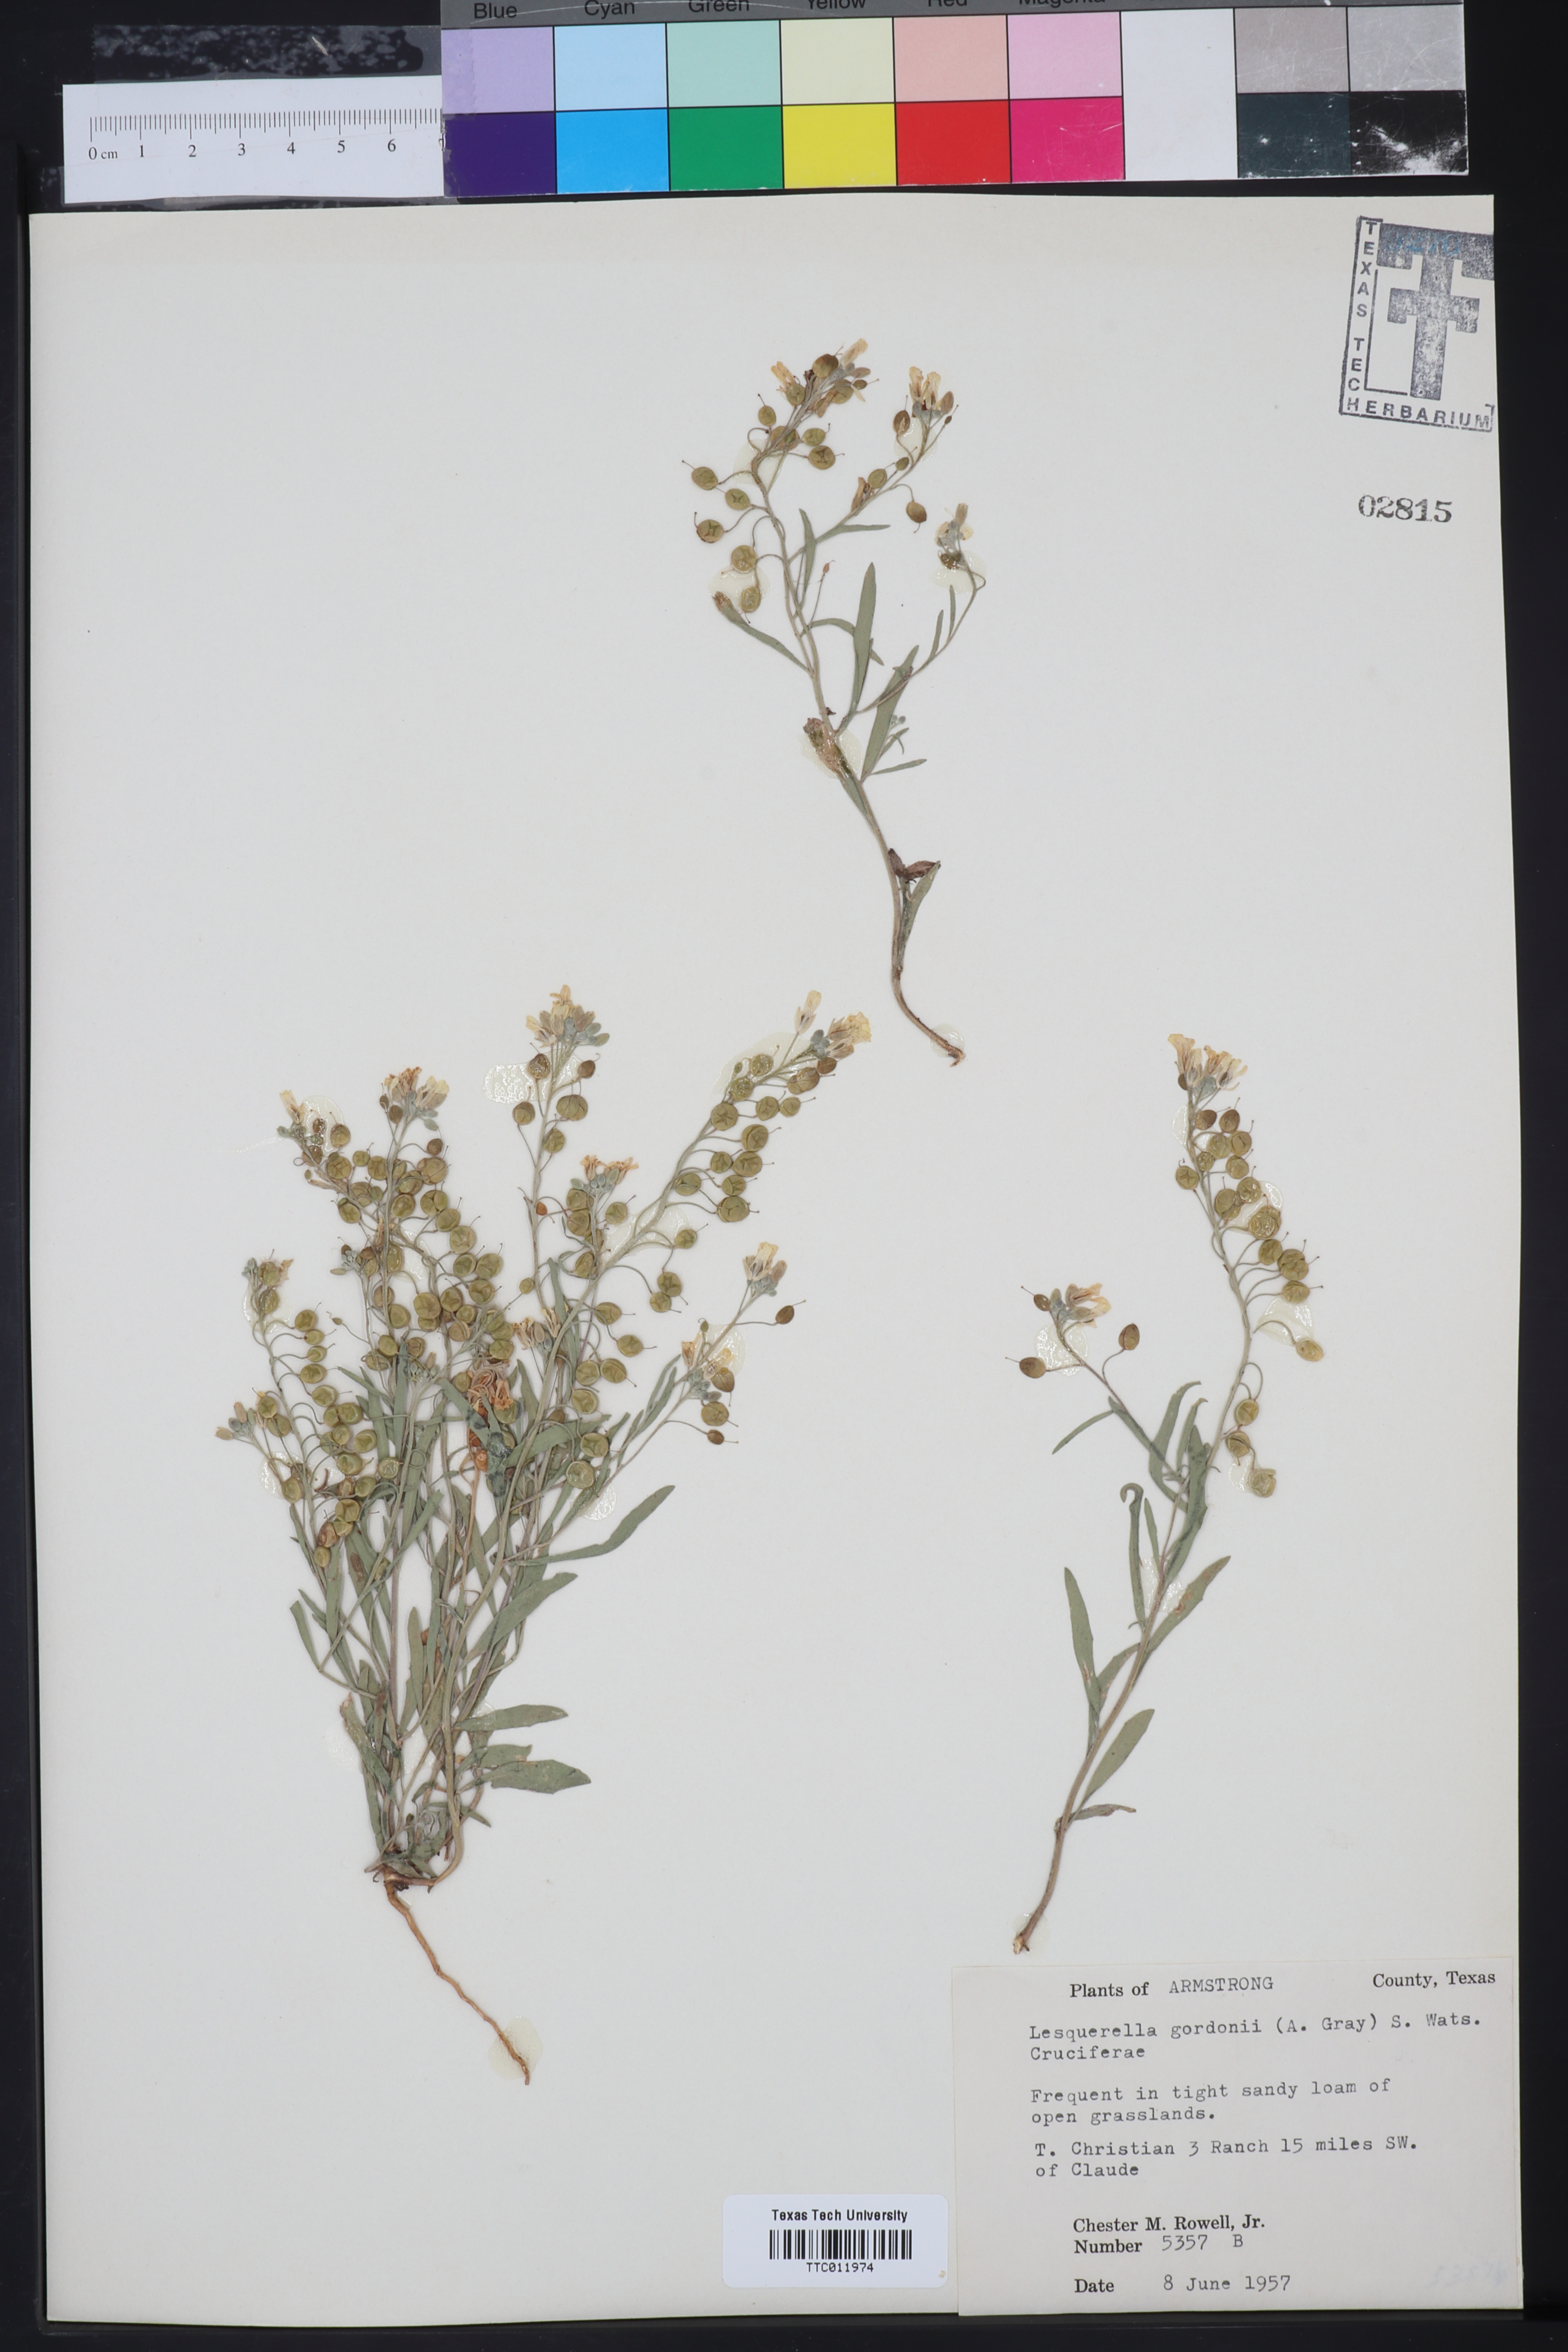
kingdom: Plantae
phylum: Tracheophyta
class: Magnoliopsida
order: Brassicales
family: Brassicaceae
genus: Physaria
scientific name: Physaria gordonii
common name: Gordon's bladderpod
